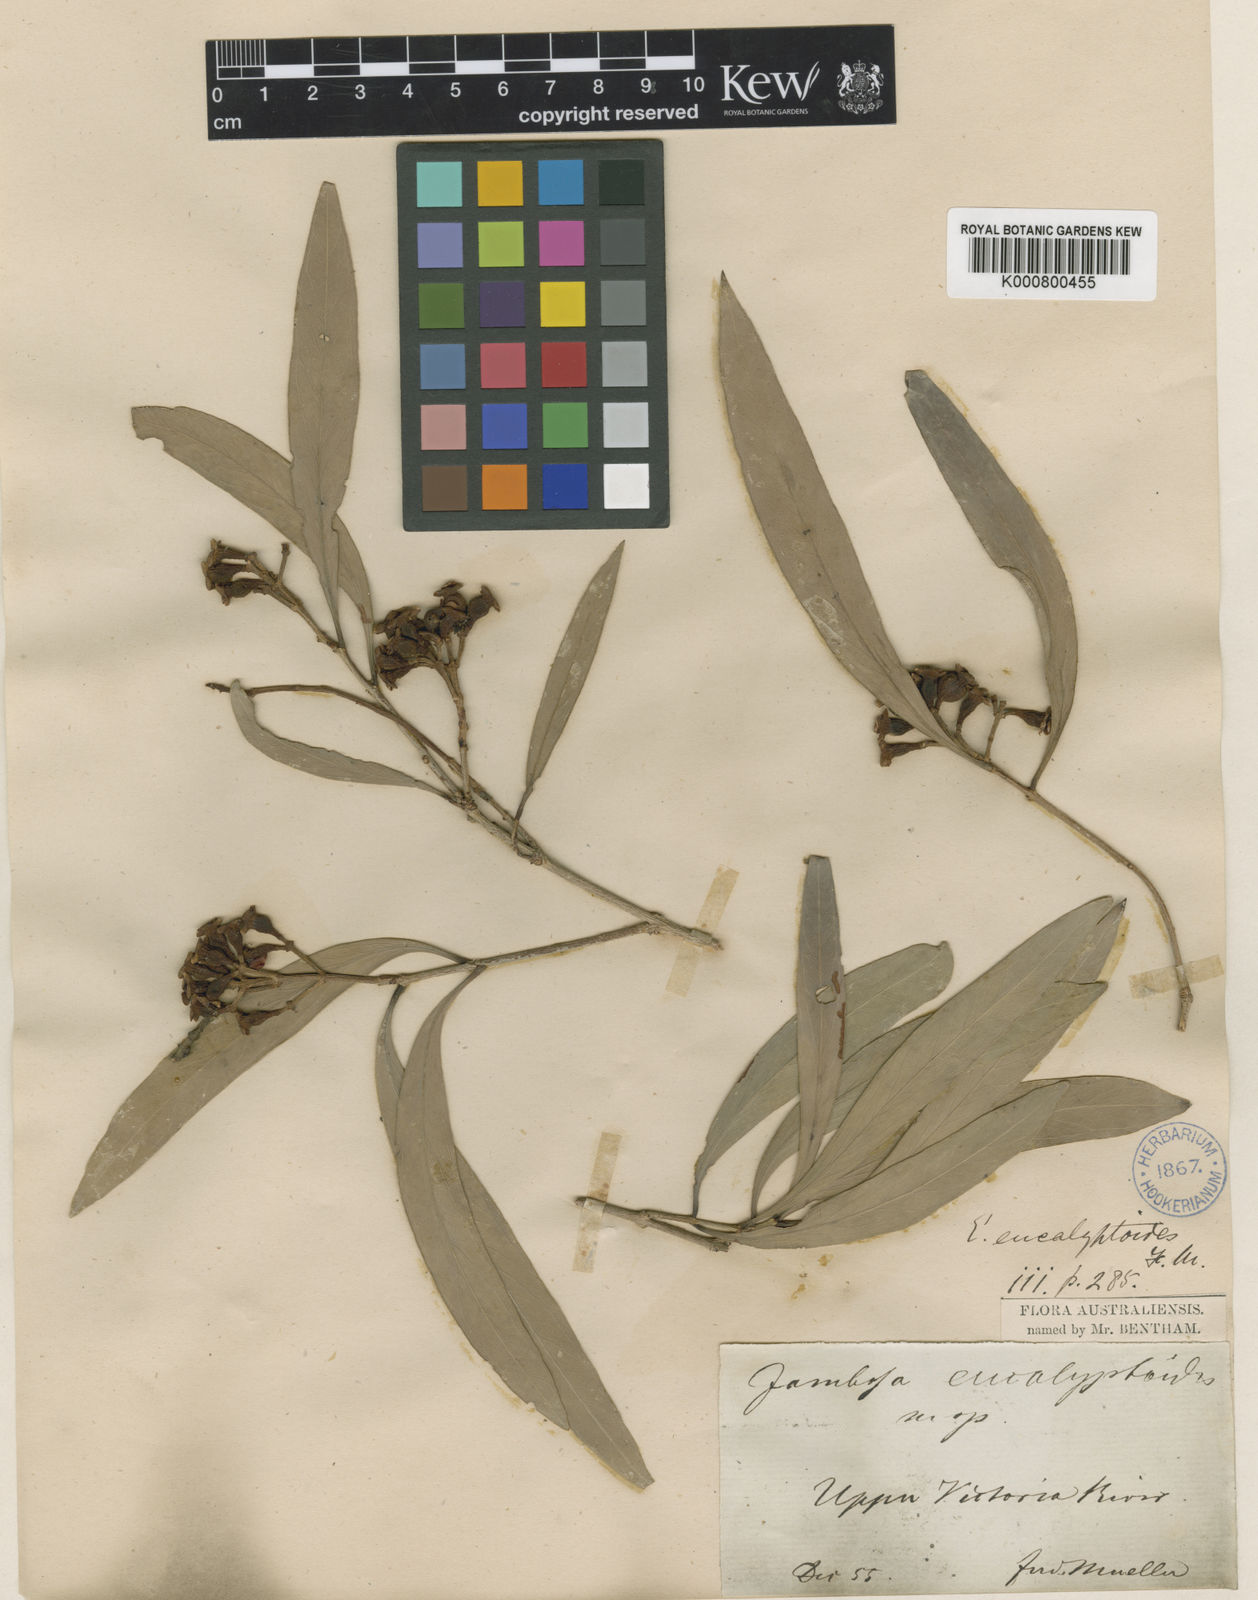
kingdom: Plantae
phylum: Tracheophyta
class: Magnoliopsida
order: Myrtales
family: Myrtaceae
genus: Syzygium
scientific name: Syzygium eucalyptoides
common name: Native apple
